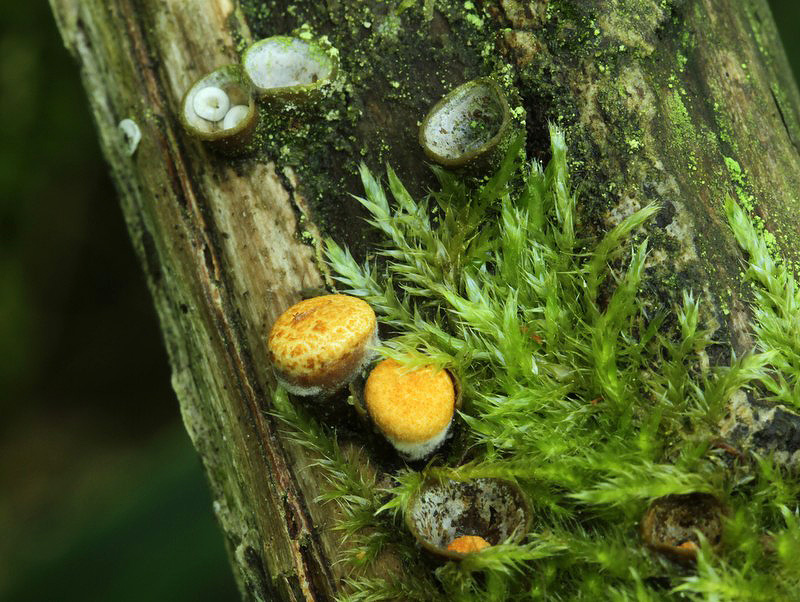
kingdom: Fungi
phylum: Basidiomycota
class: Agaricomycetes
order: Agaricales
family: Nidulariaceae
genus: Crucibulum
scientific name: Crucibulum crucibuliforme
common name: krukkesvamp
